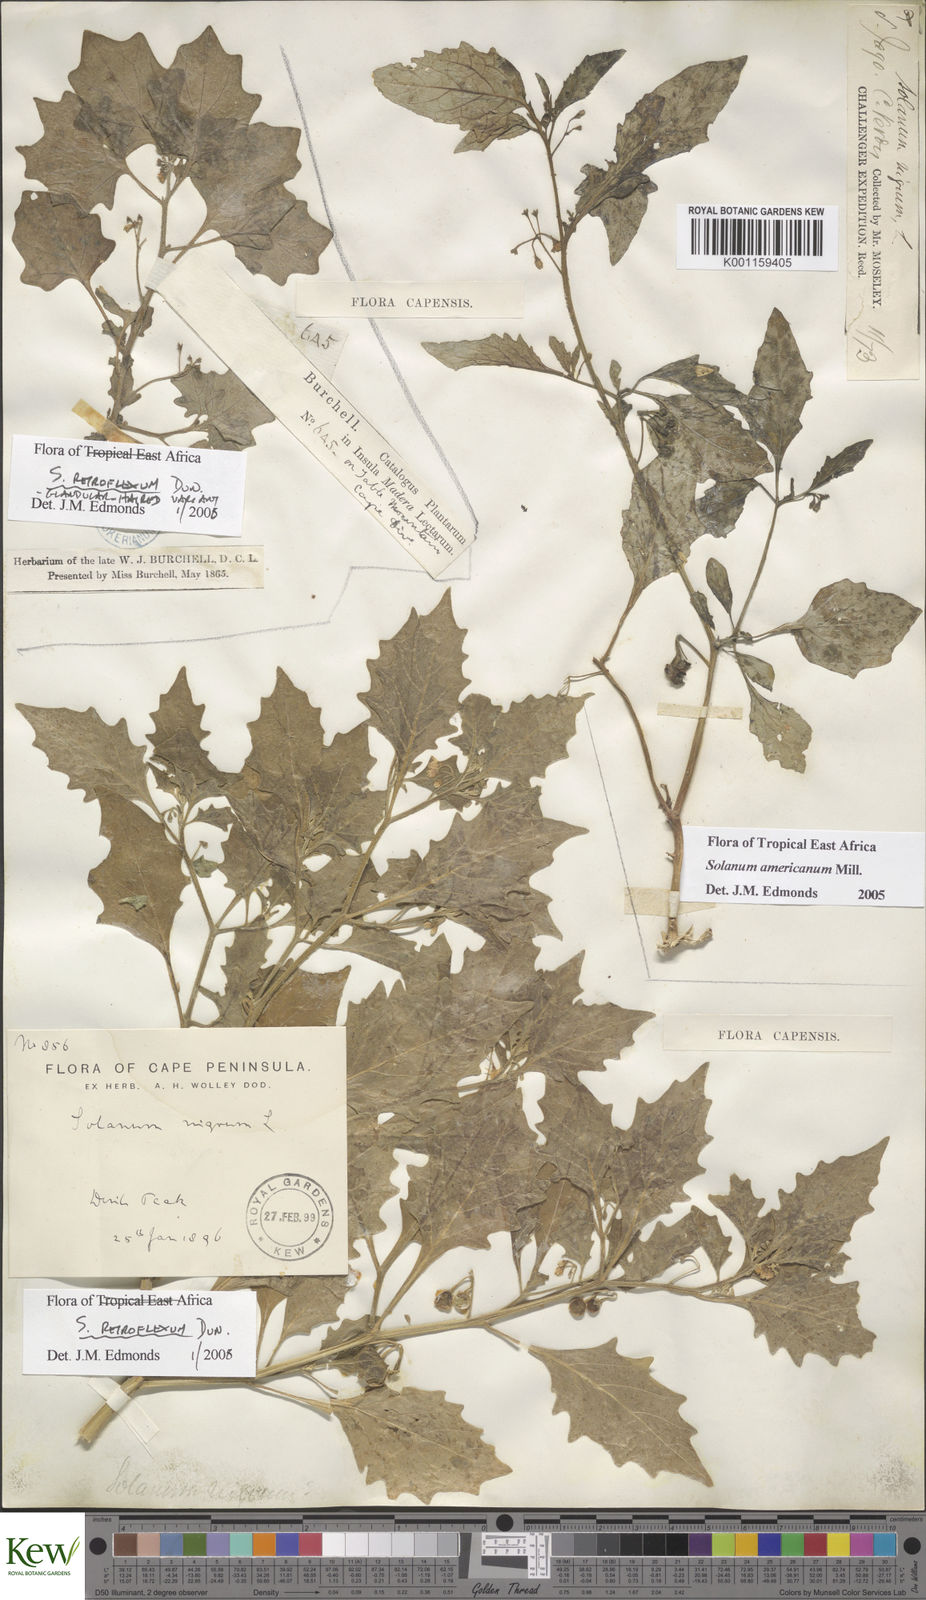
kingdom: Plantae
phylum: Tracheophyta
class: Magnoliopsida
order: Solanales
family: Solanaceae
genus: Solanum
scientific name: Solanum americanum
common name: American black nightshade
